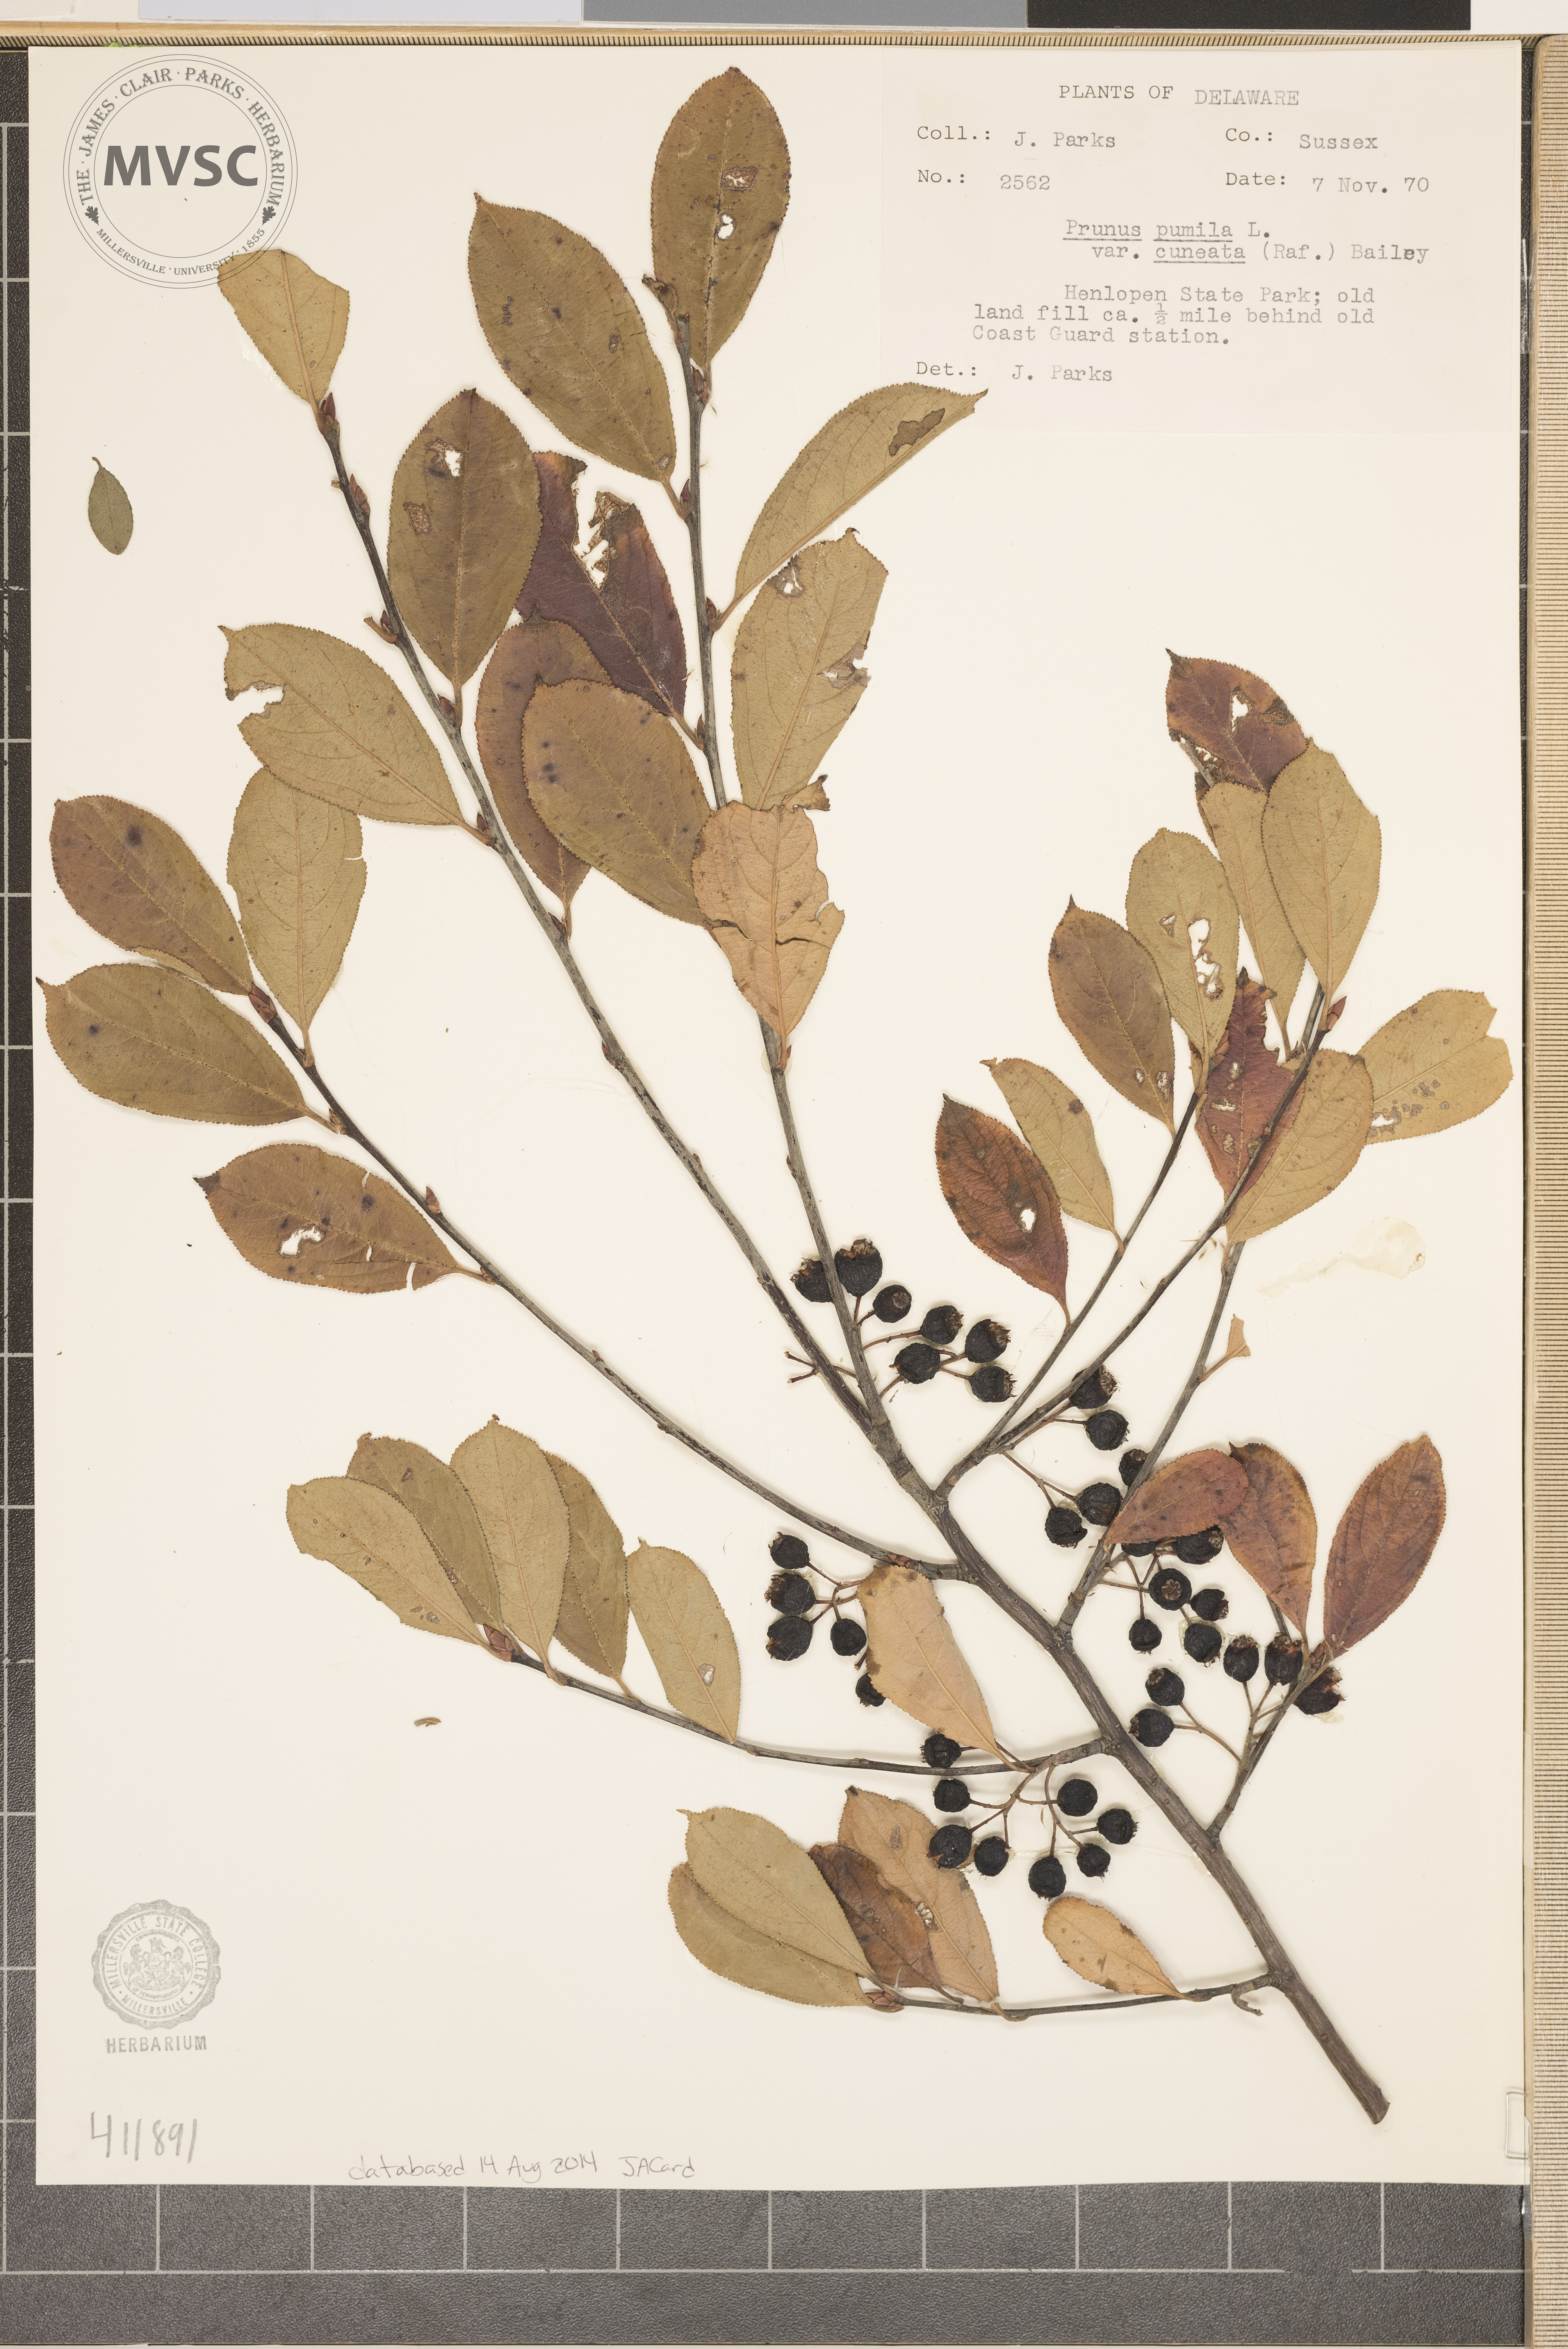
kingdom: Plantae
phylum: Tracheophyta
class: Magnoliopsida
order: Rosales
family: Rosaceae
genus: Aronia
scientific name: Aronia arbutifolia
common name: Red chokeberry
